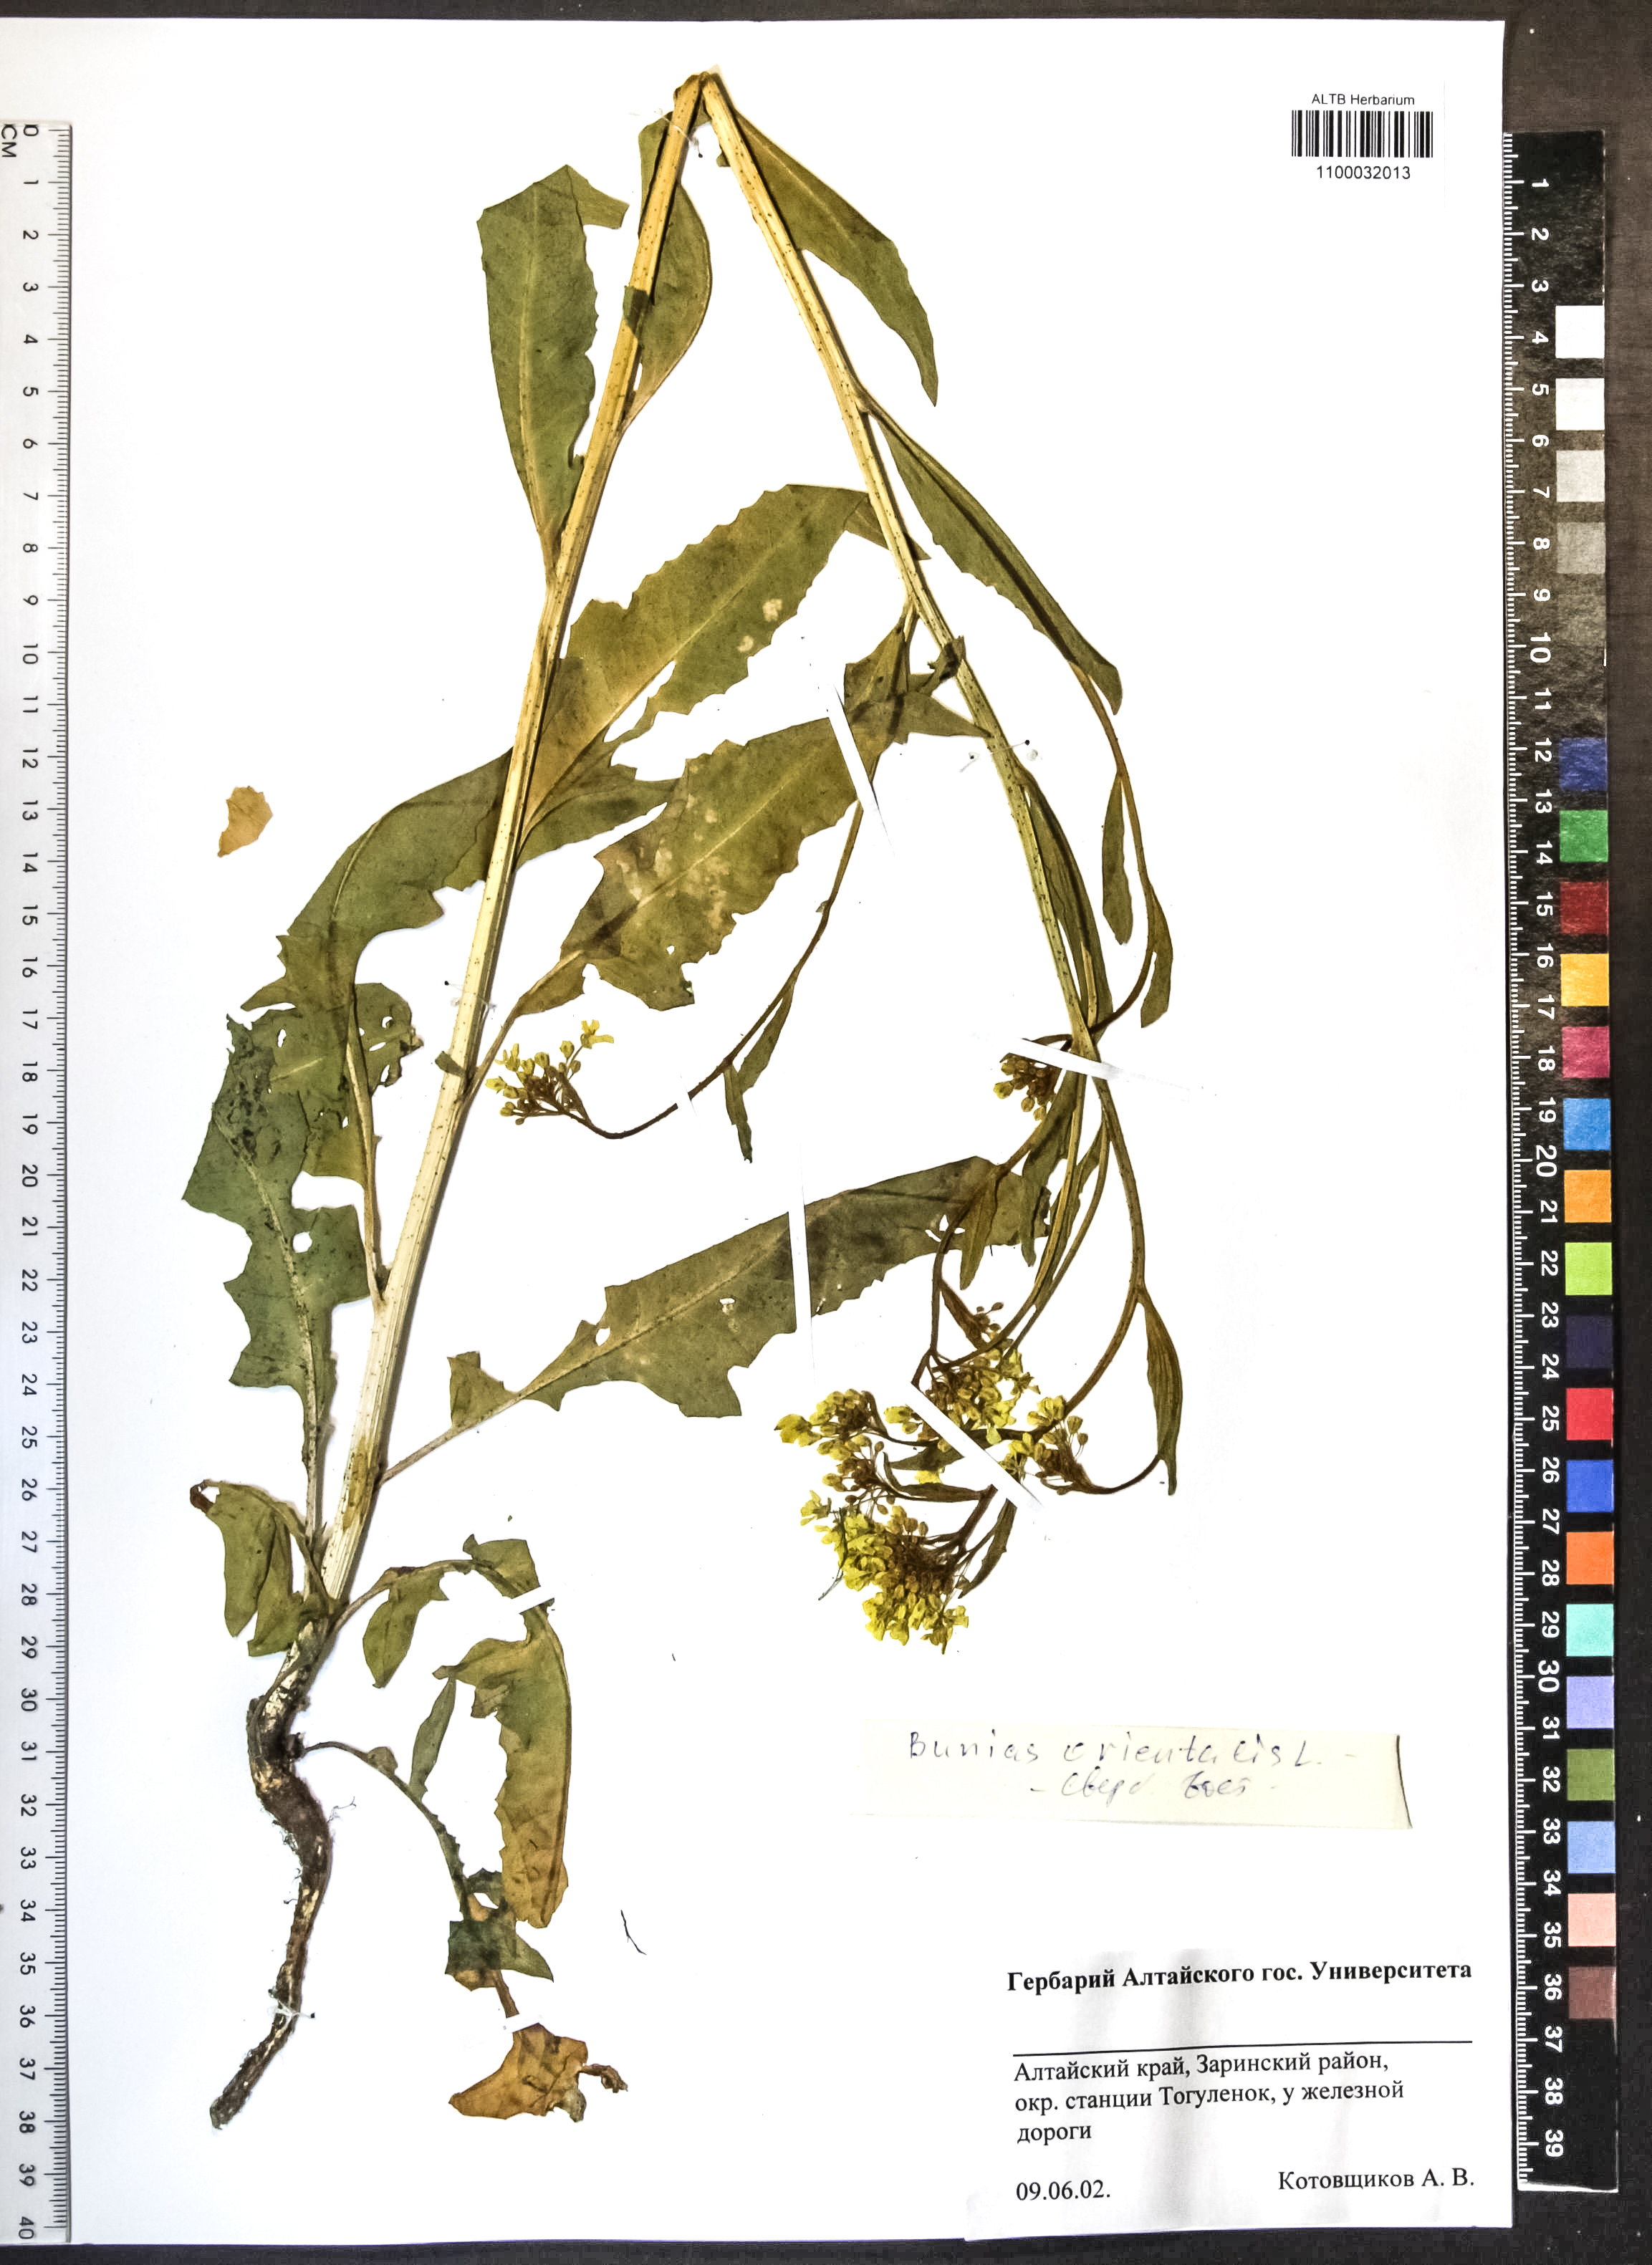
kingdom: Plantae
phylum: Tracheophyta
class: Magnoliopsida
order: Brassicales
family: Brassicaceae
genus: Bunias
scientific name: Bunias orientalis
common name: Warty-cabbage
